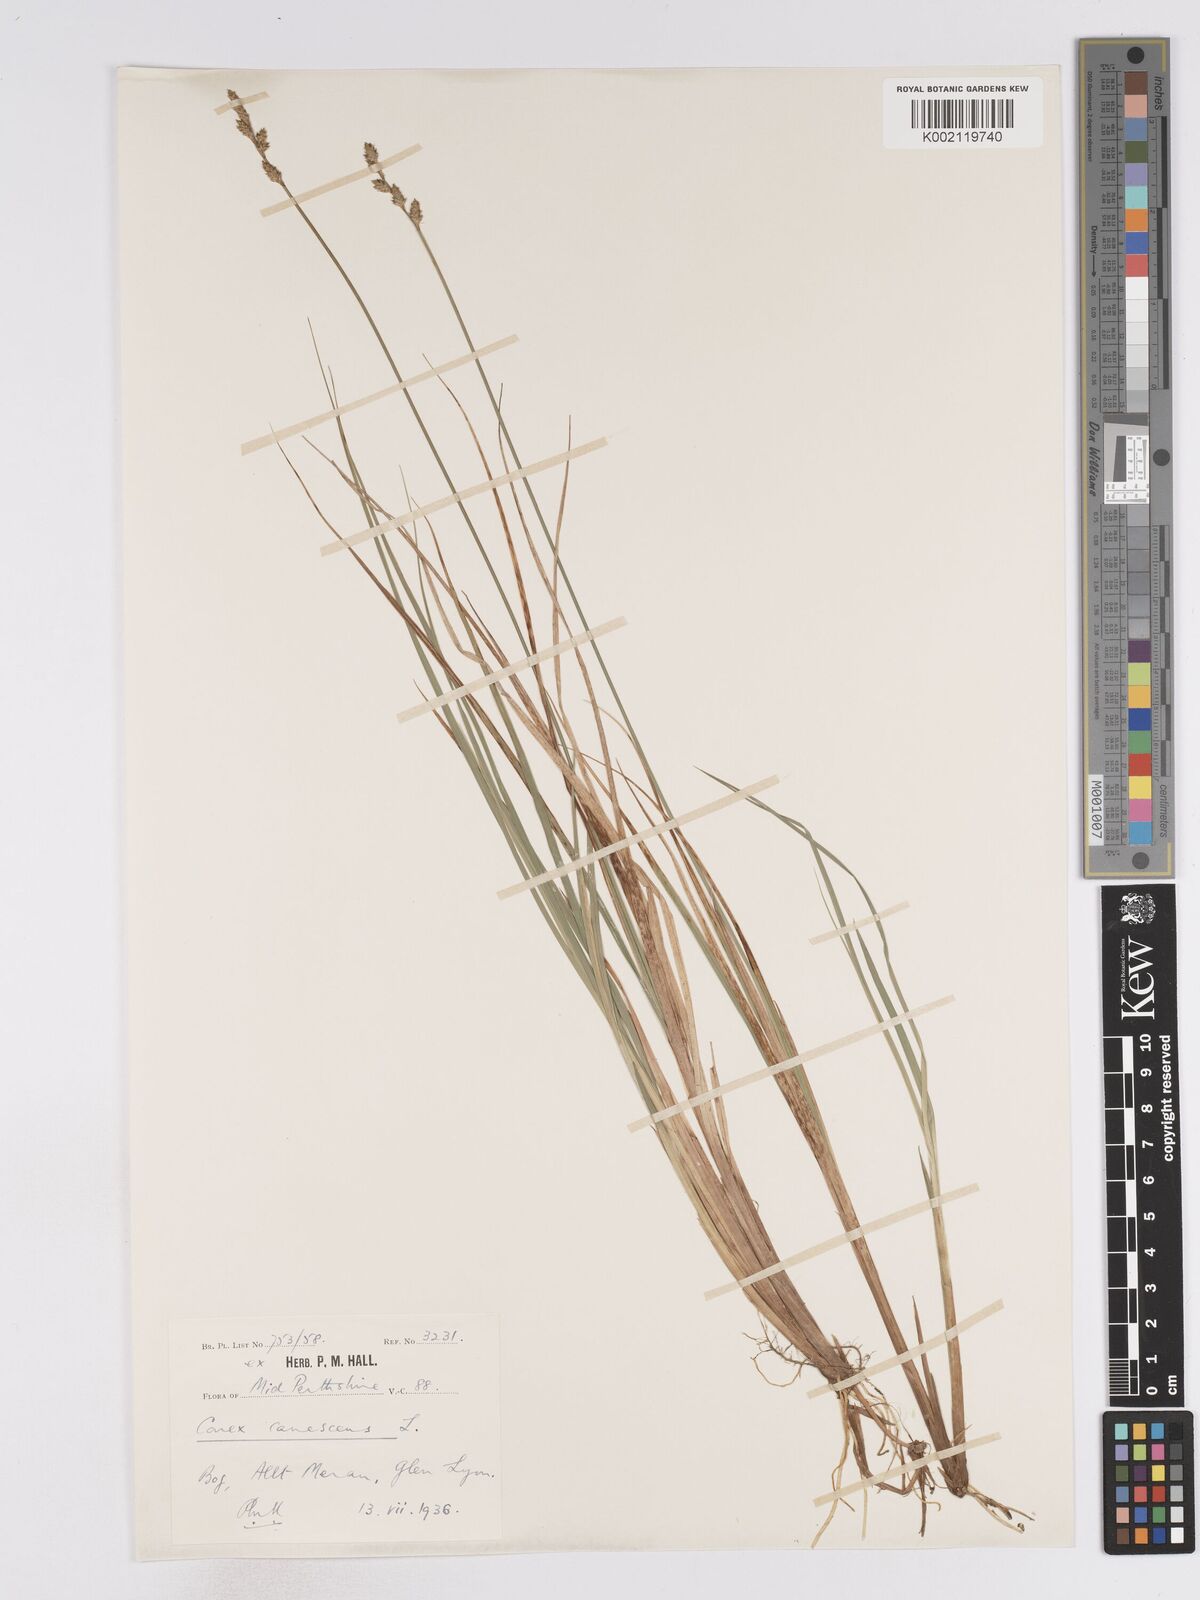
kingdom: Plantae
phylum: Tracheophyta
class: Liliopsida
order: Poales
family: Cyperaceae
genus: Carex
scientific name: Carex curta
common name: White sedge
